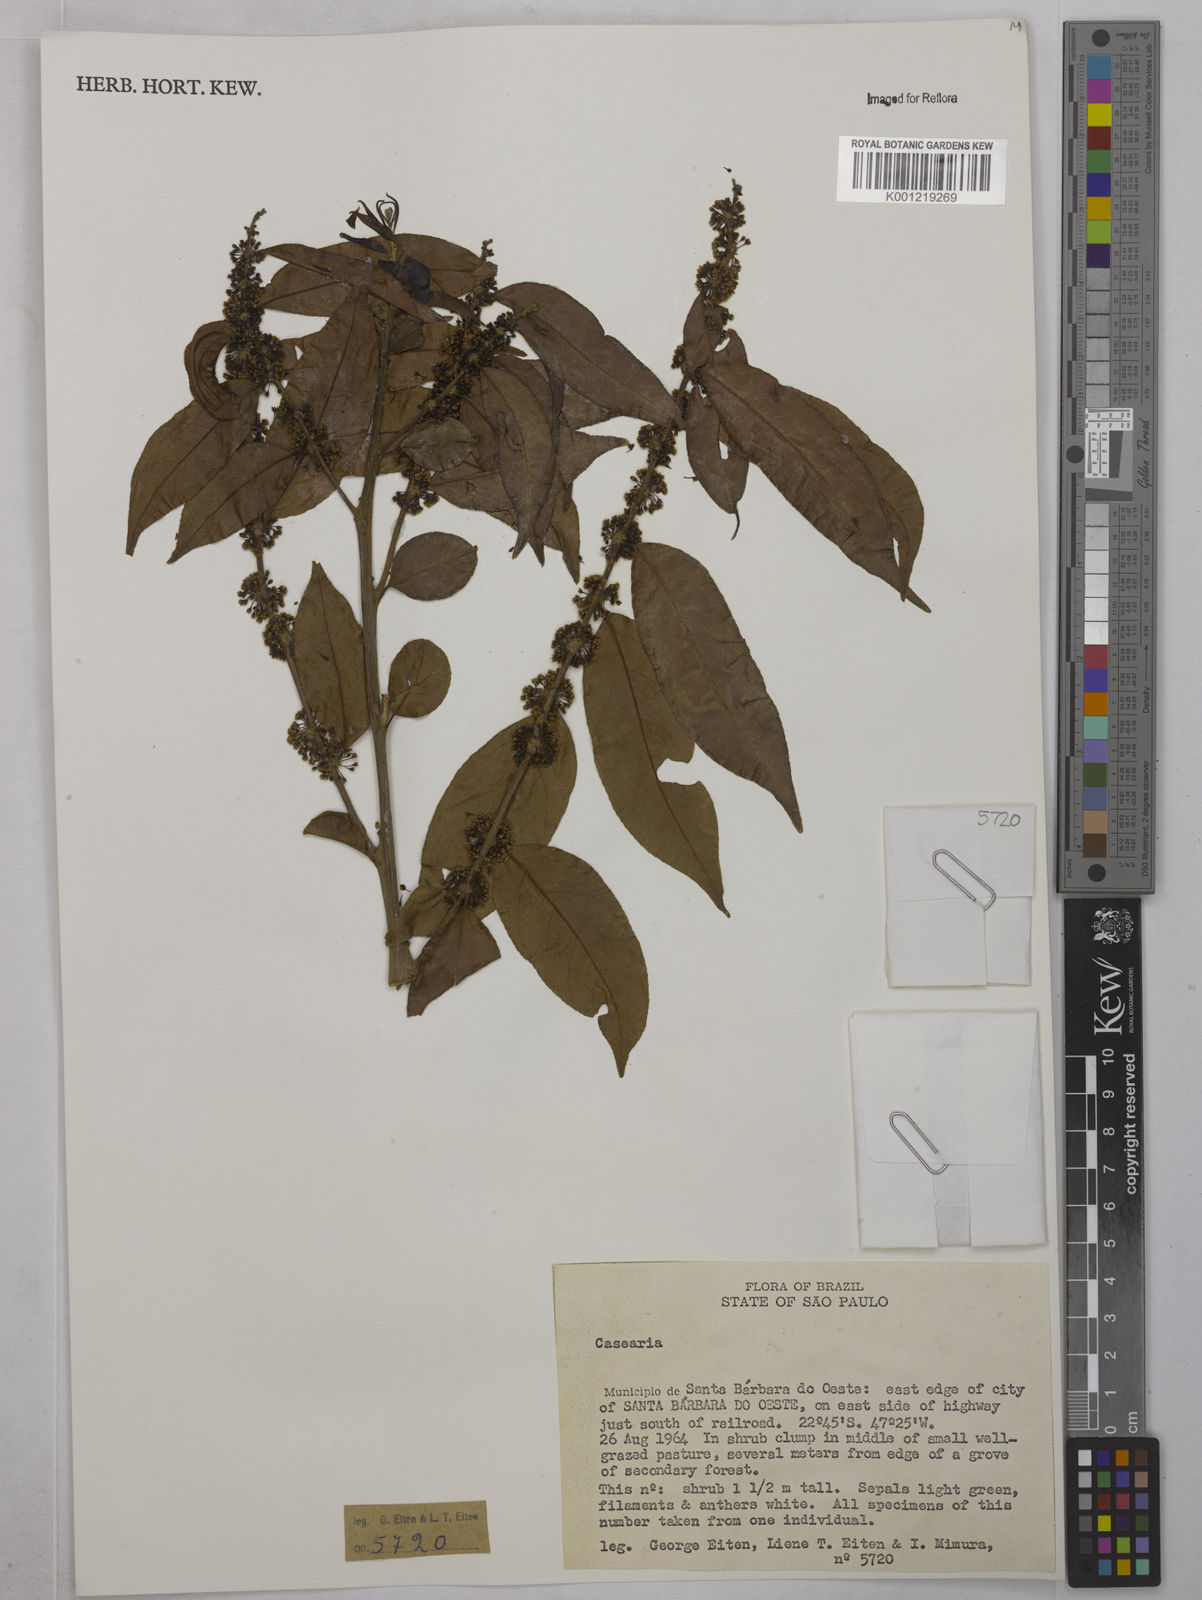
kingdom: Plantae
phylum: Tracheophyta
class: Magnoliopsida
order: Malpighiales
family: Salicaceae
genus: Casearia
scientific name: Casearia
